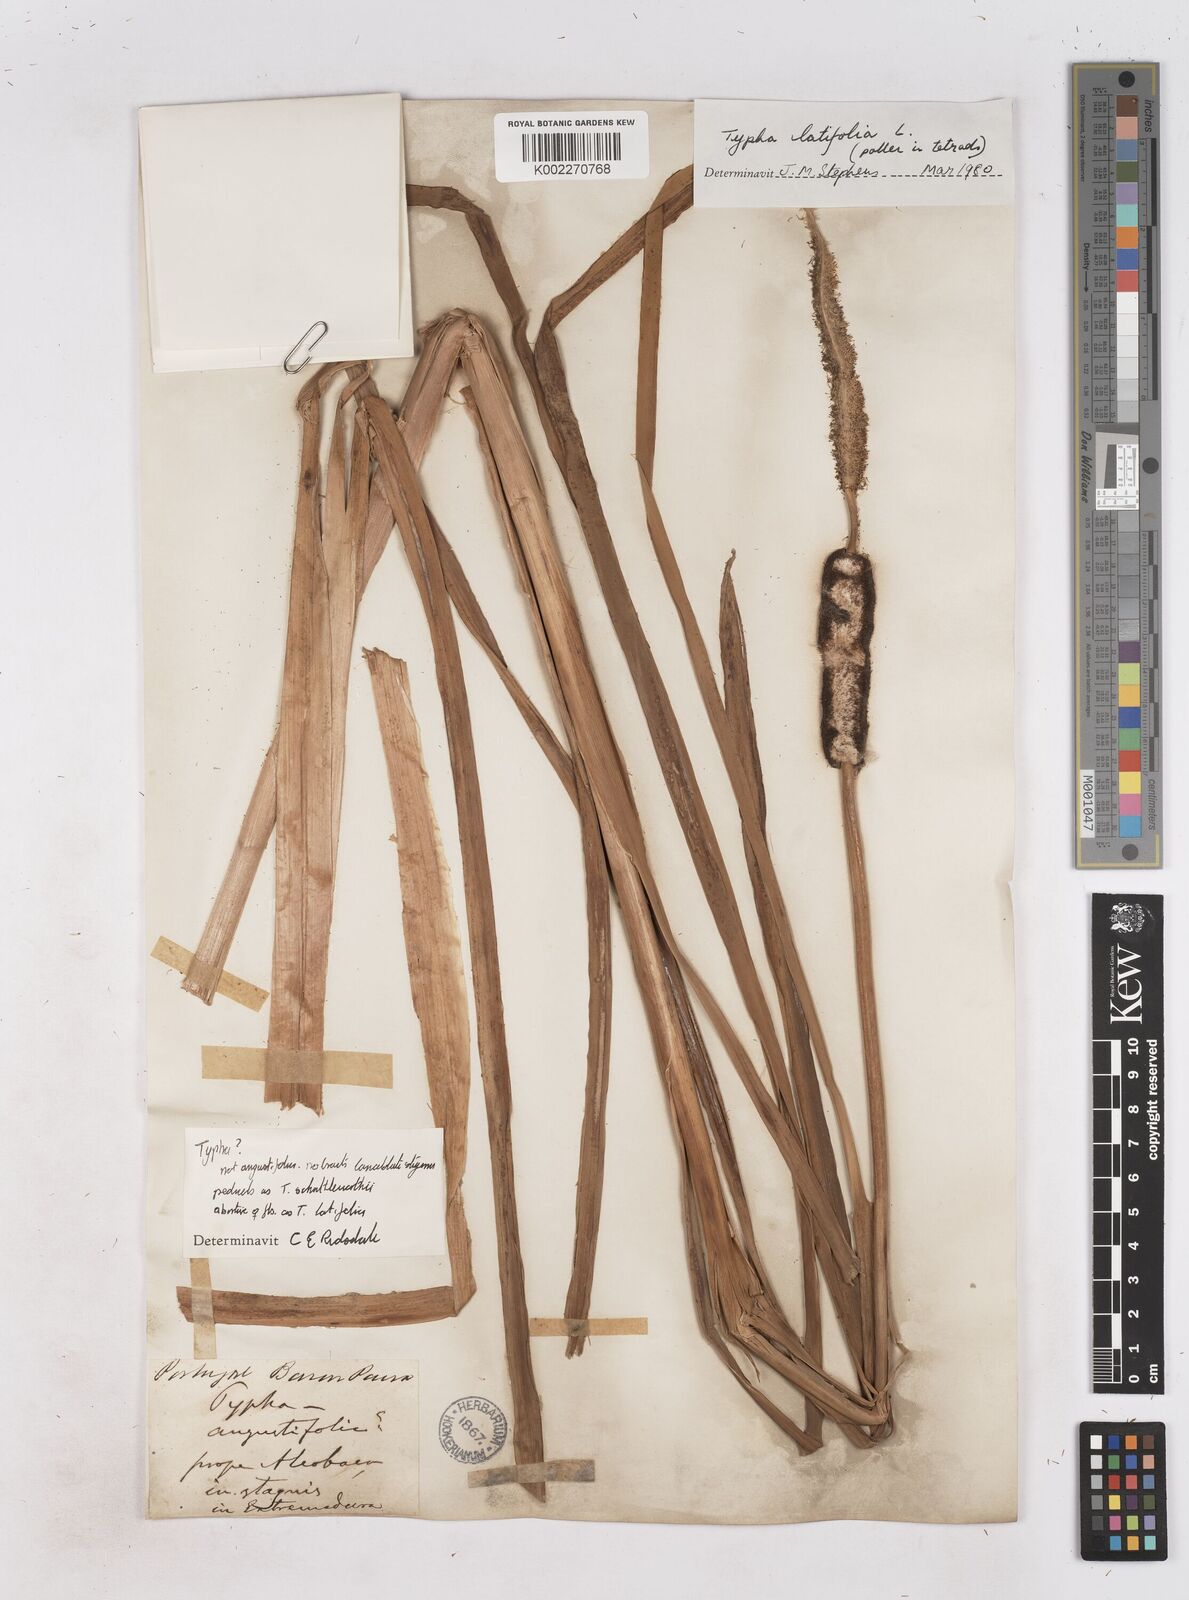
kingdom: Plantae
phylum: Tracheophyta
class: Liliopsida
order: Poales
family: Typhaceae
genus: Typha
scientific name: Typha latifolia
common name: Broadleaf cattail
